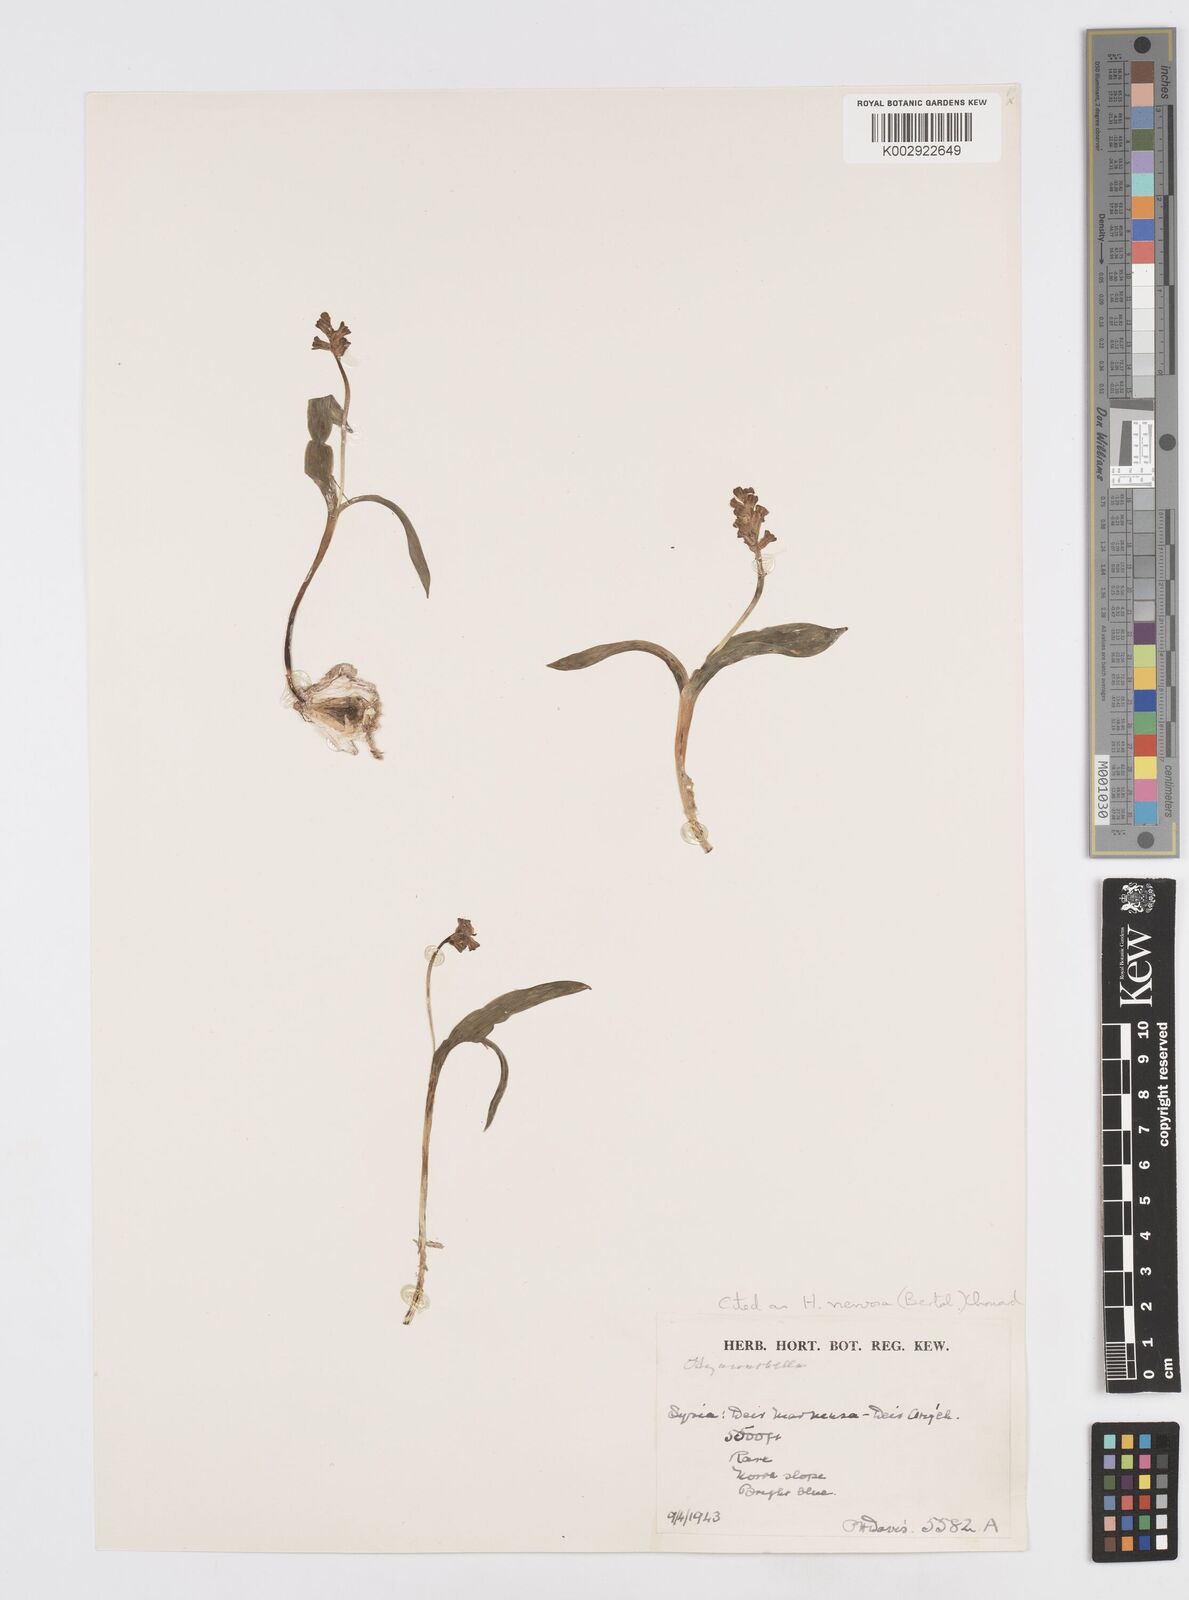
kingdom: Plantae
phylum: Tracheophyta
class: Liliopsida
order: Asparagales
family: Asparagaceae
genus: Hyacinthella
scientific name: Hyacinthella nervosa
